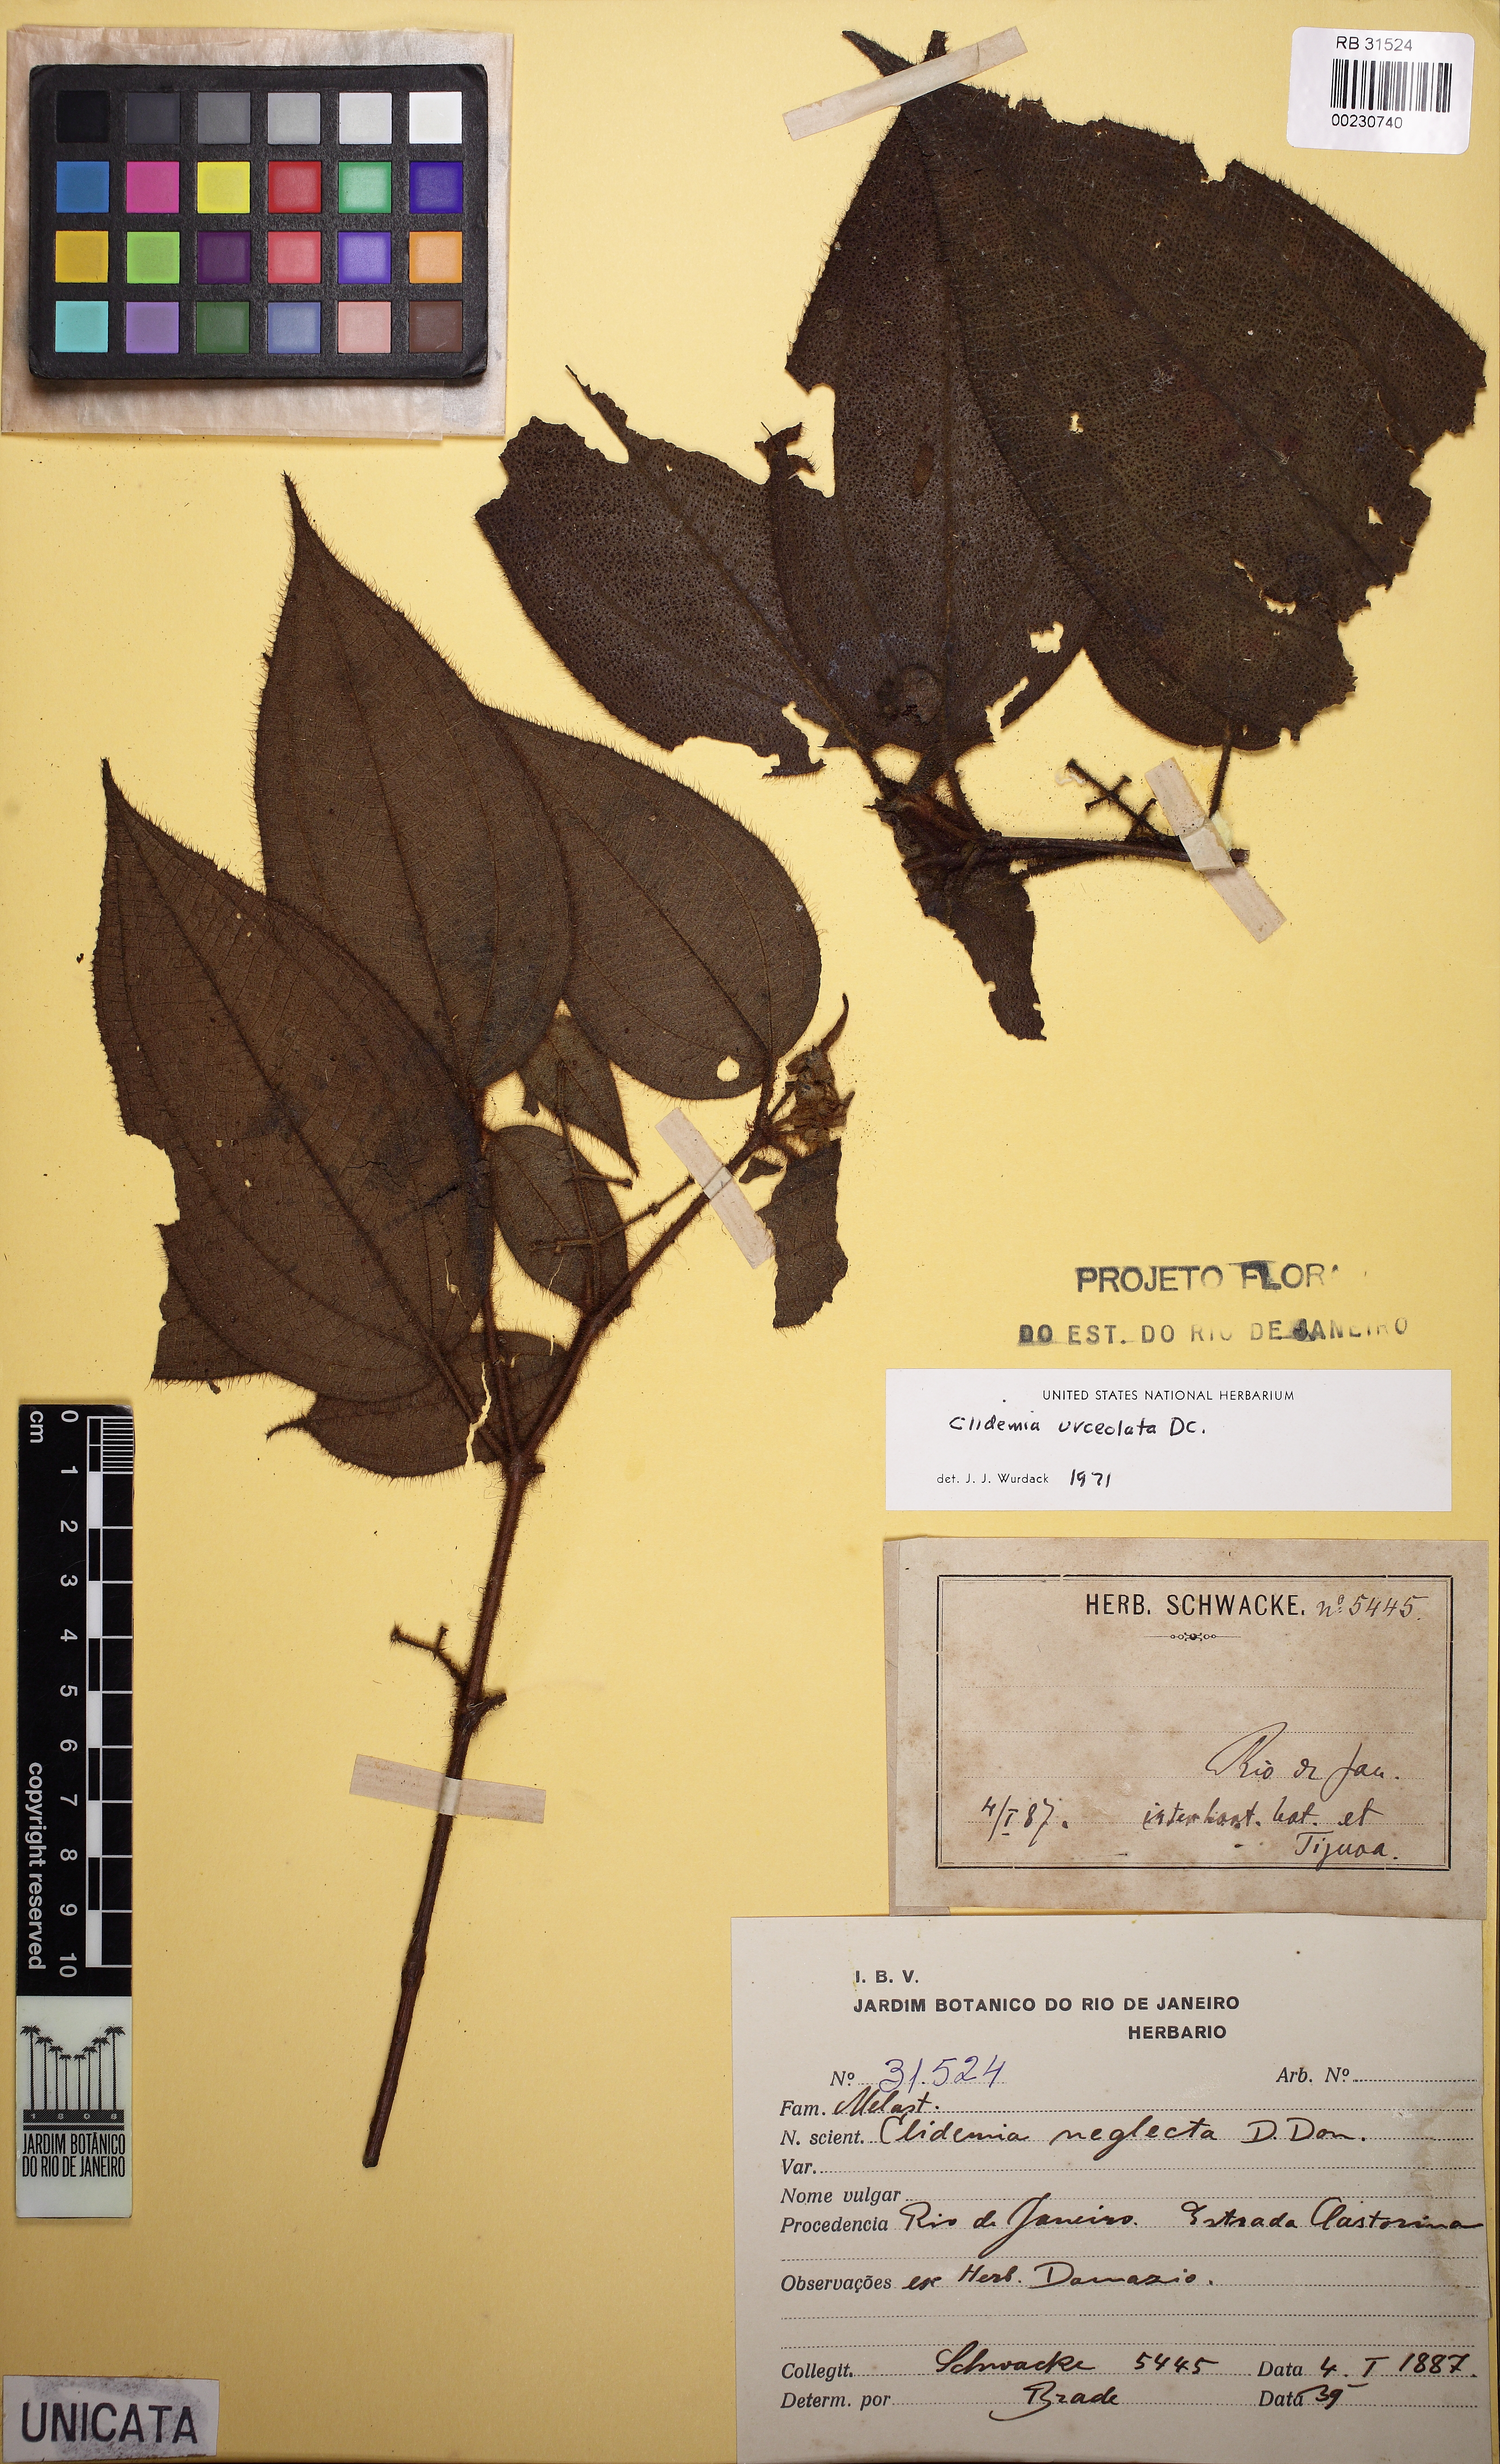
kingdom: Plantae
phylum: Tracheophyta
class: Magnoliopsida
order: Myrtales
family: Melastomataceae
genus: Miconia
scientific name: Miconia neourceolata
